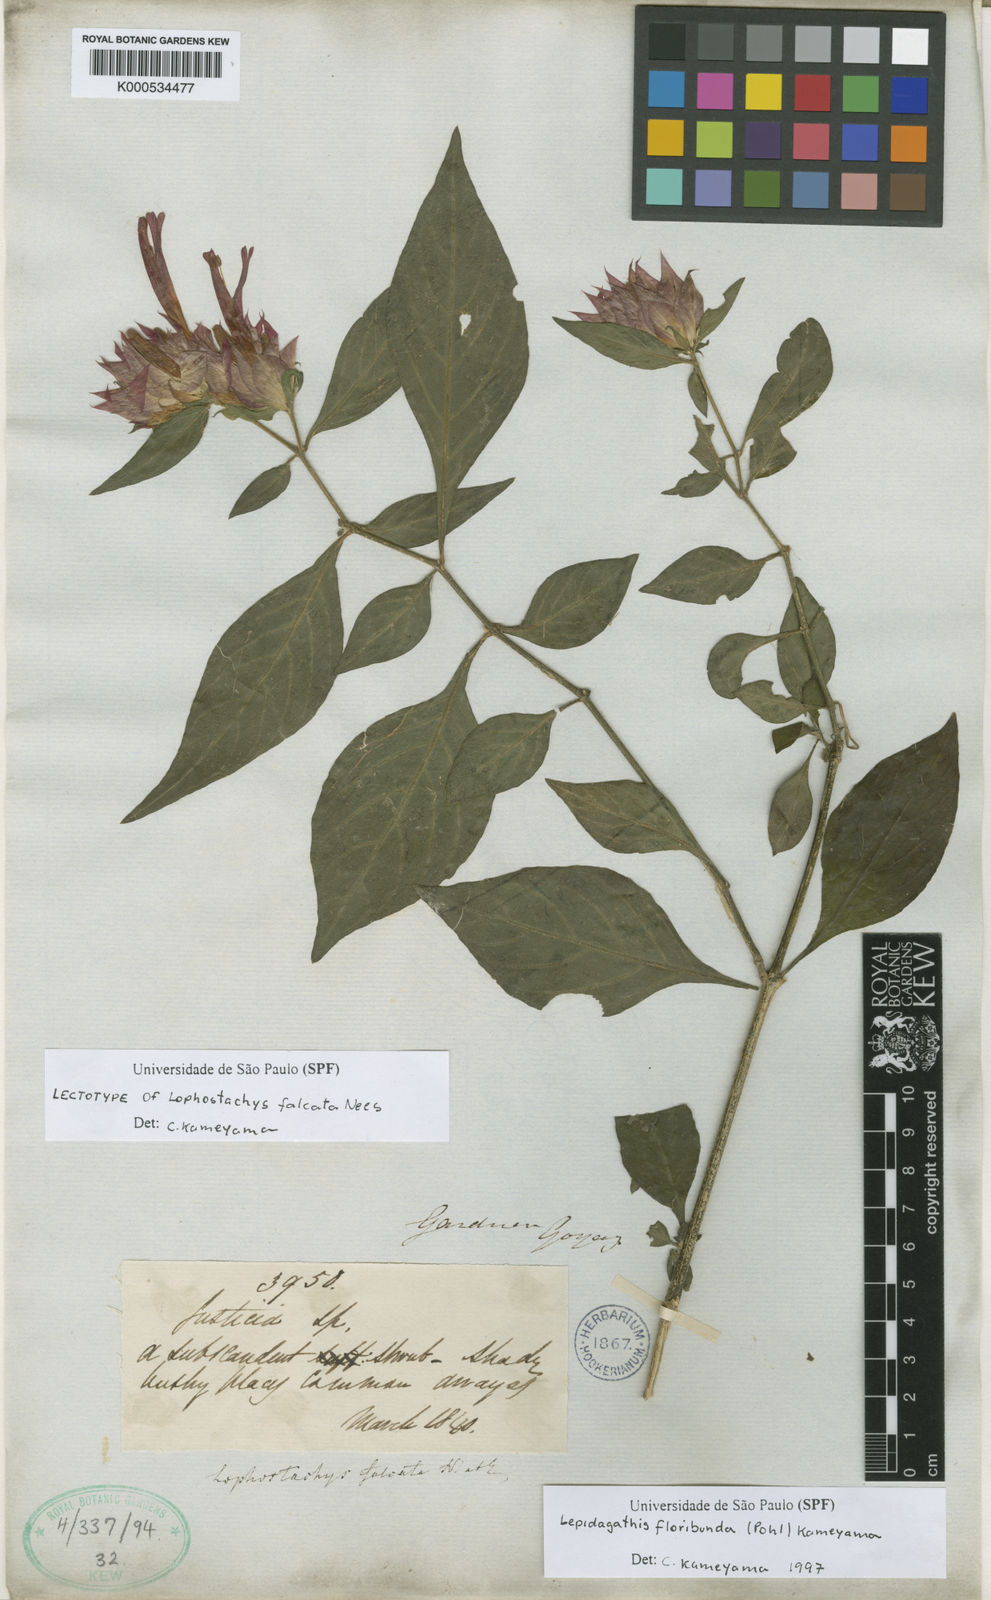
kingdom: Plantae
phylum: Tracheophyta
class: Magnoliopsida
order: Lamiales
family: Acanthaceae
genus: Lepidagathis
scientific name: Lepidagathis floribunda
